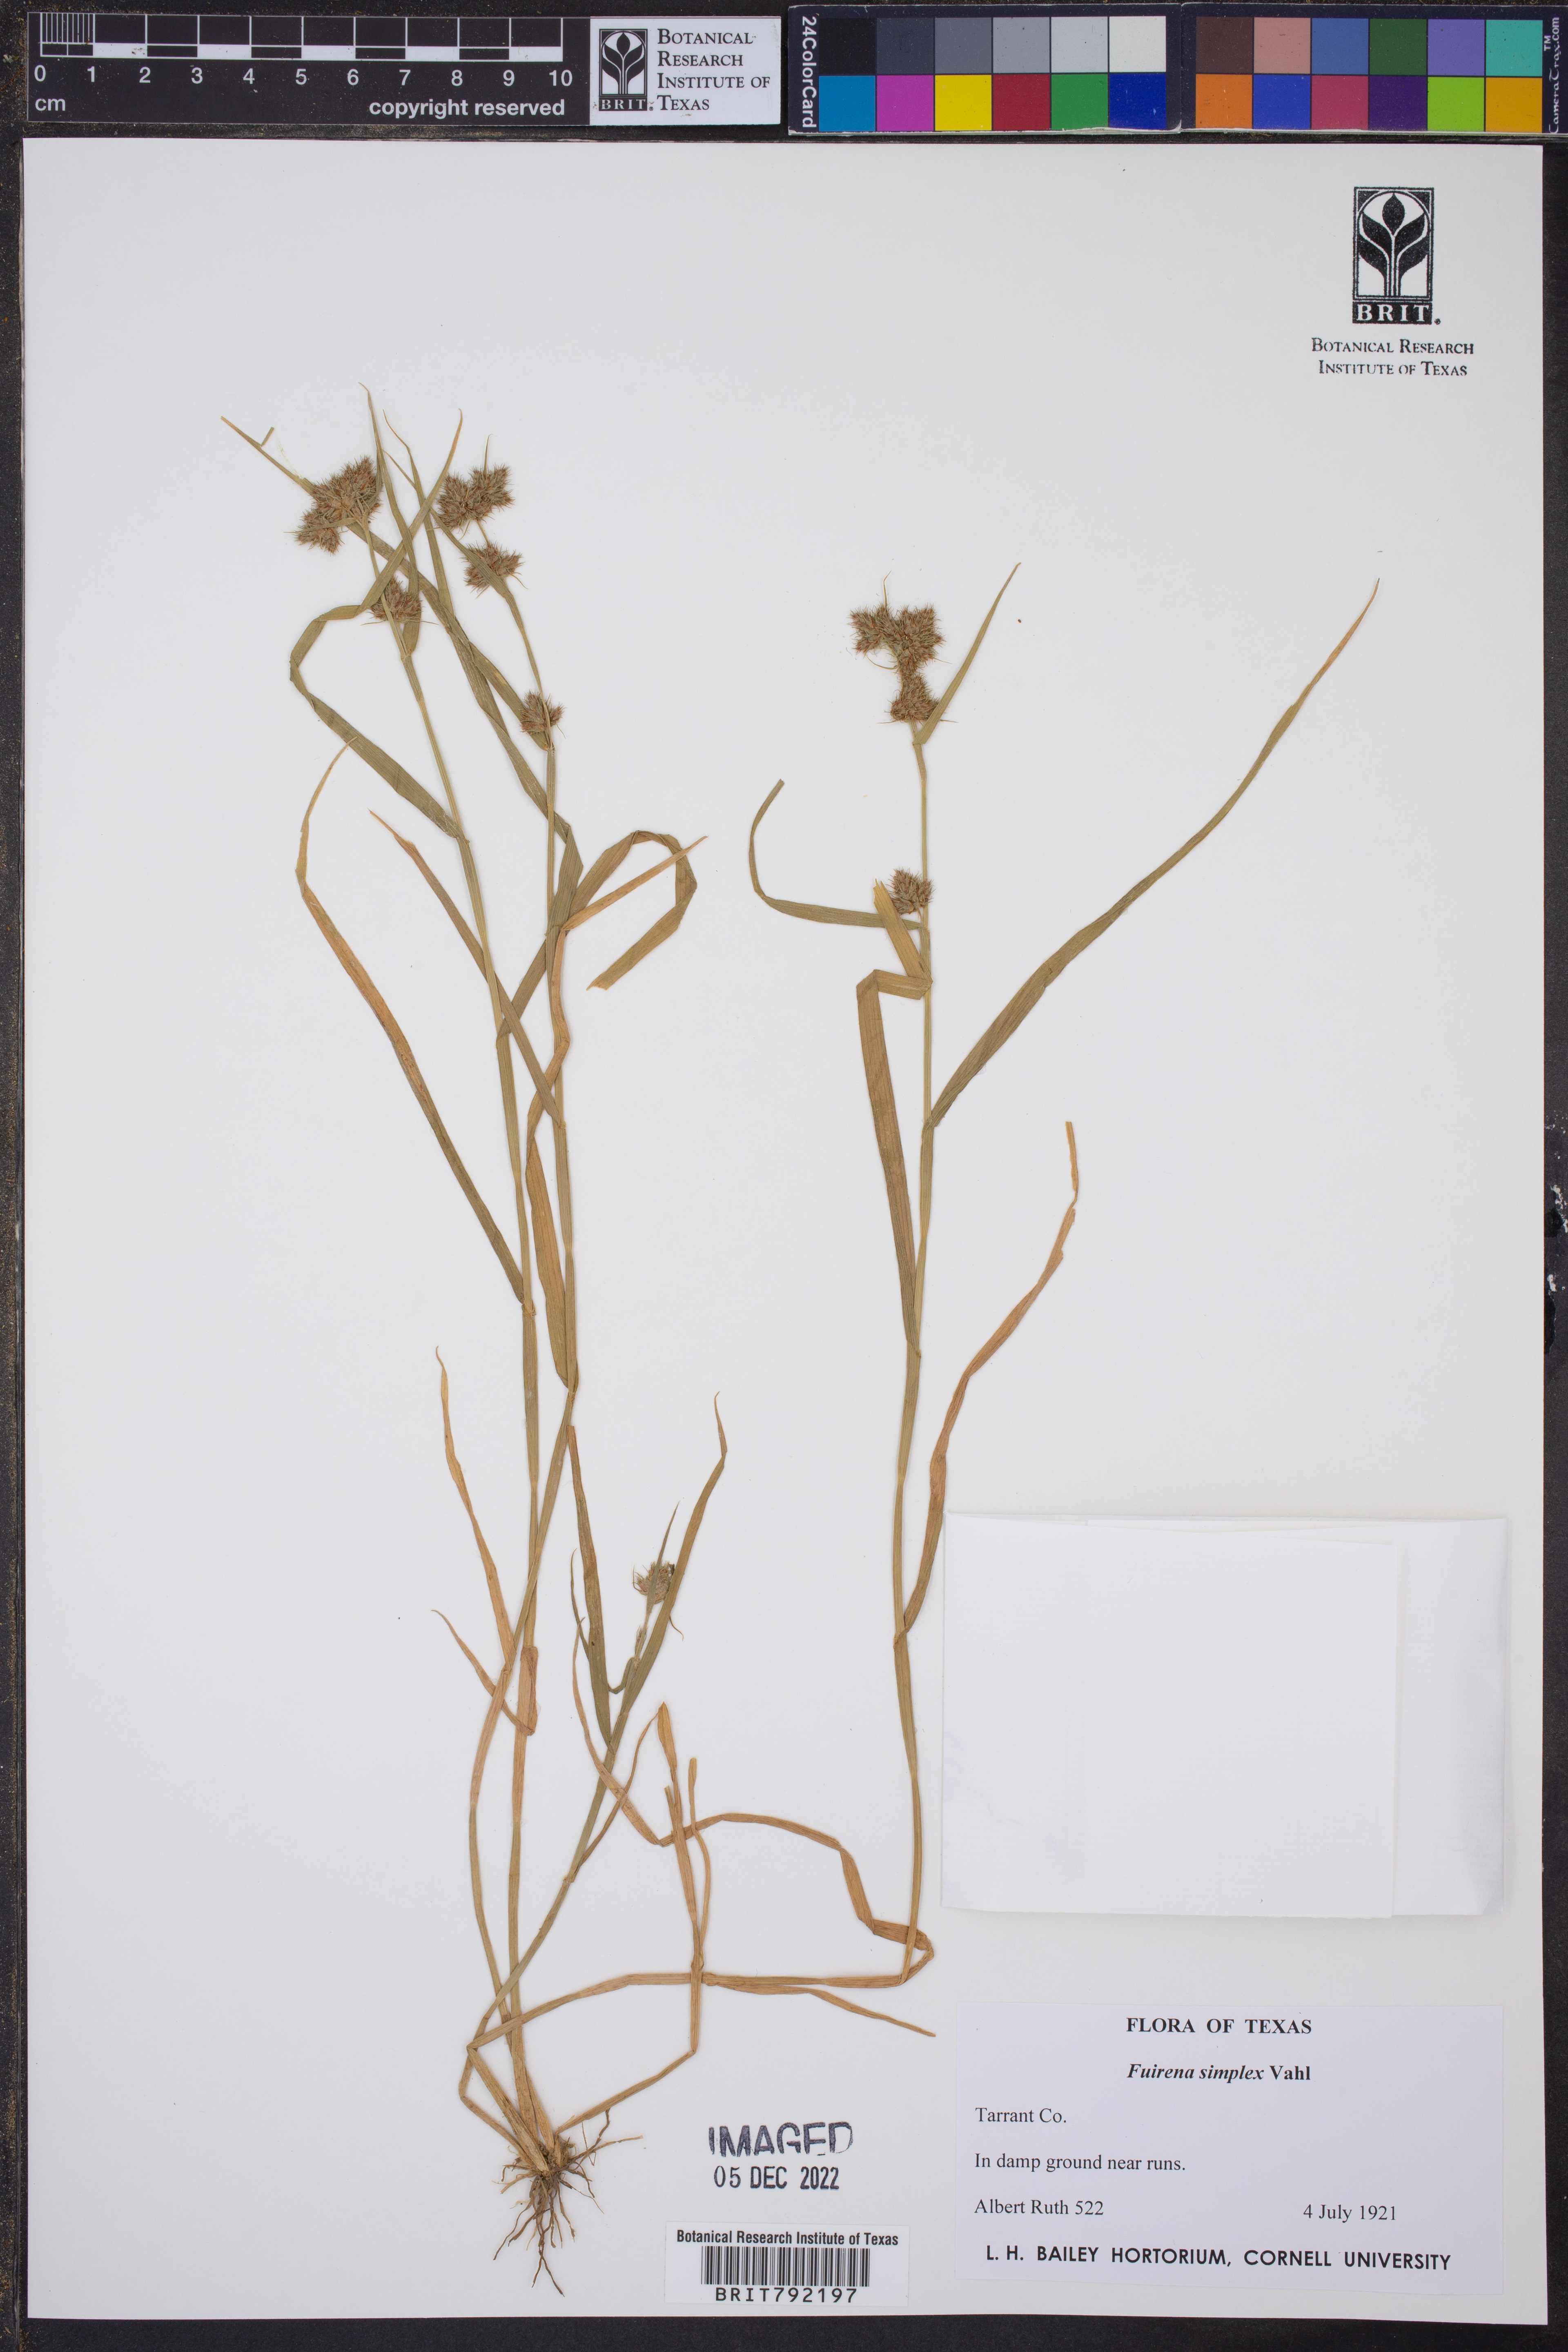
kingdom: Plantae
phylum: Tracheophyta
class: Liliopsida
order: Poales
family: Cyperaceae
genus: Fuirena
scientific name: Fuirena simplex
